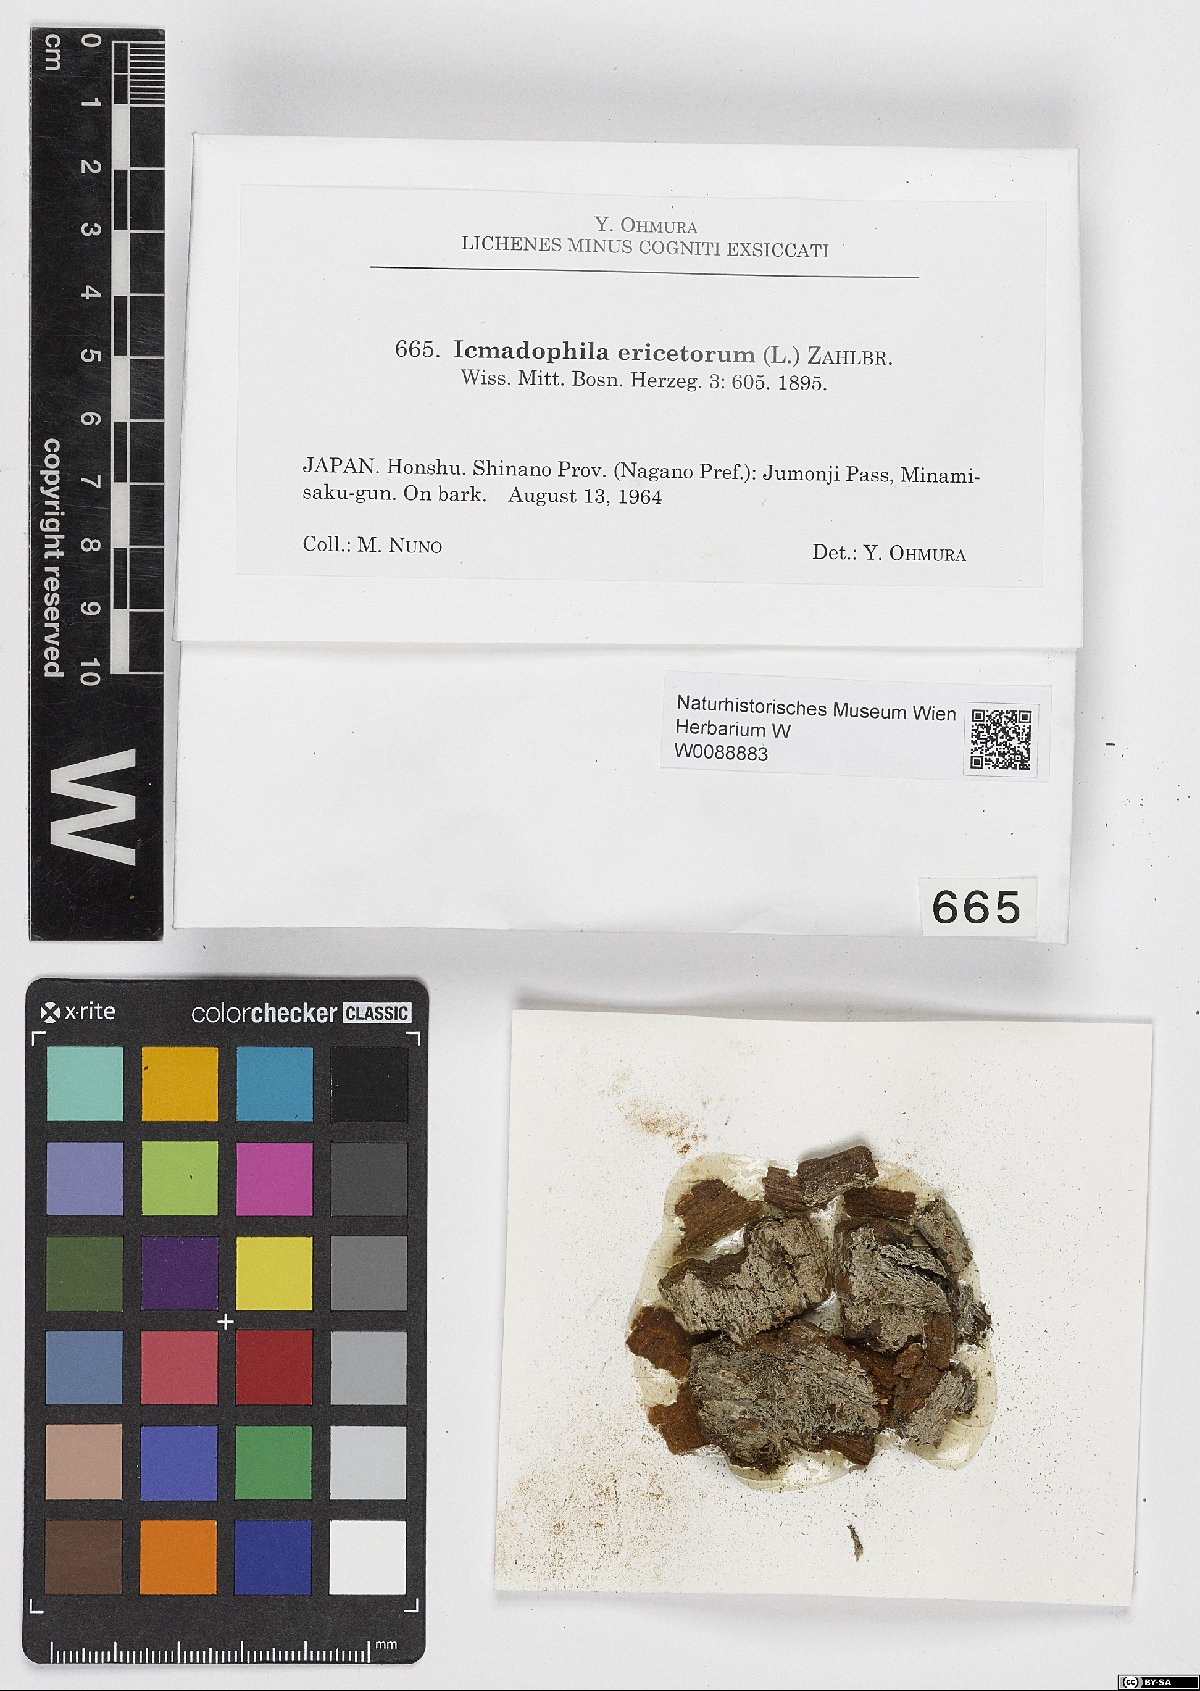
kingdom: Fungi
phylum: Ascomycota
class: Lecanoromycetes
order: Pertusariales
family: Icmadophilaceae
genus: Icmadophila
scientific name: Icmadophila ericetorum
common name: Candy lichen
